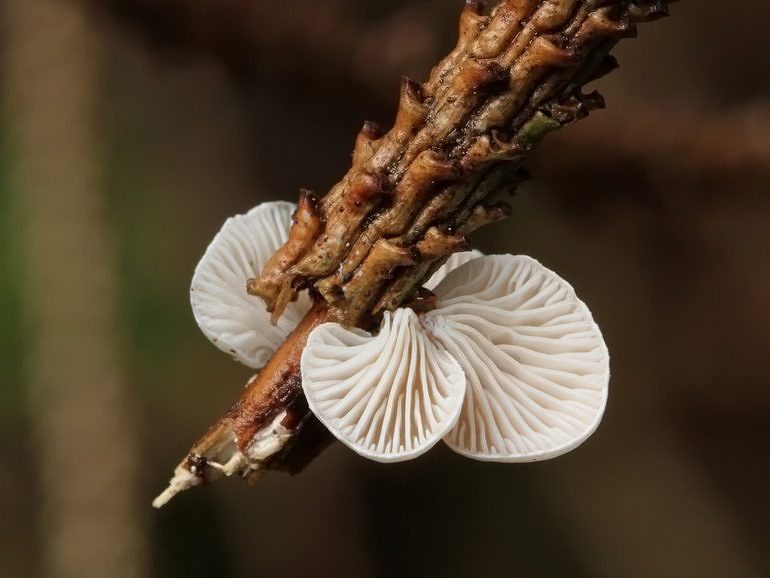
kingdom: Fungi
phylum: Basidiomycota
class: Agaricomycetes
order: Agaricales
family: Mycenaceae
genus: Panellus
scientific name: Panellus mitis
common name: mild epaulethat
